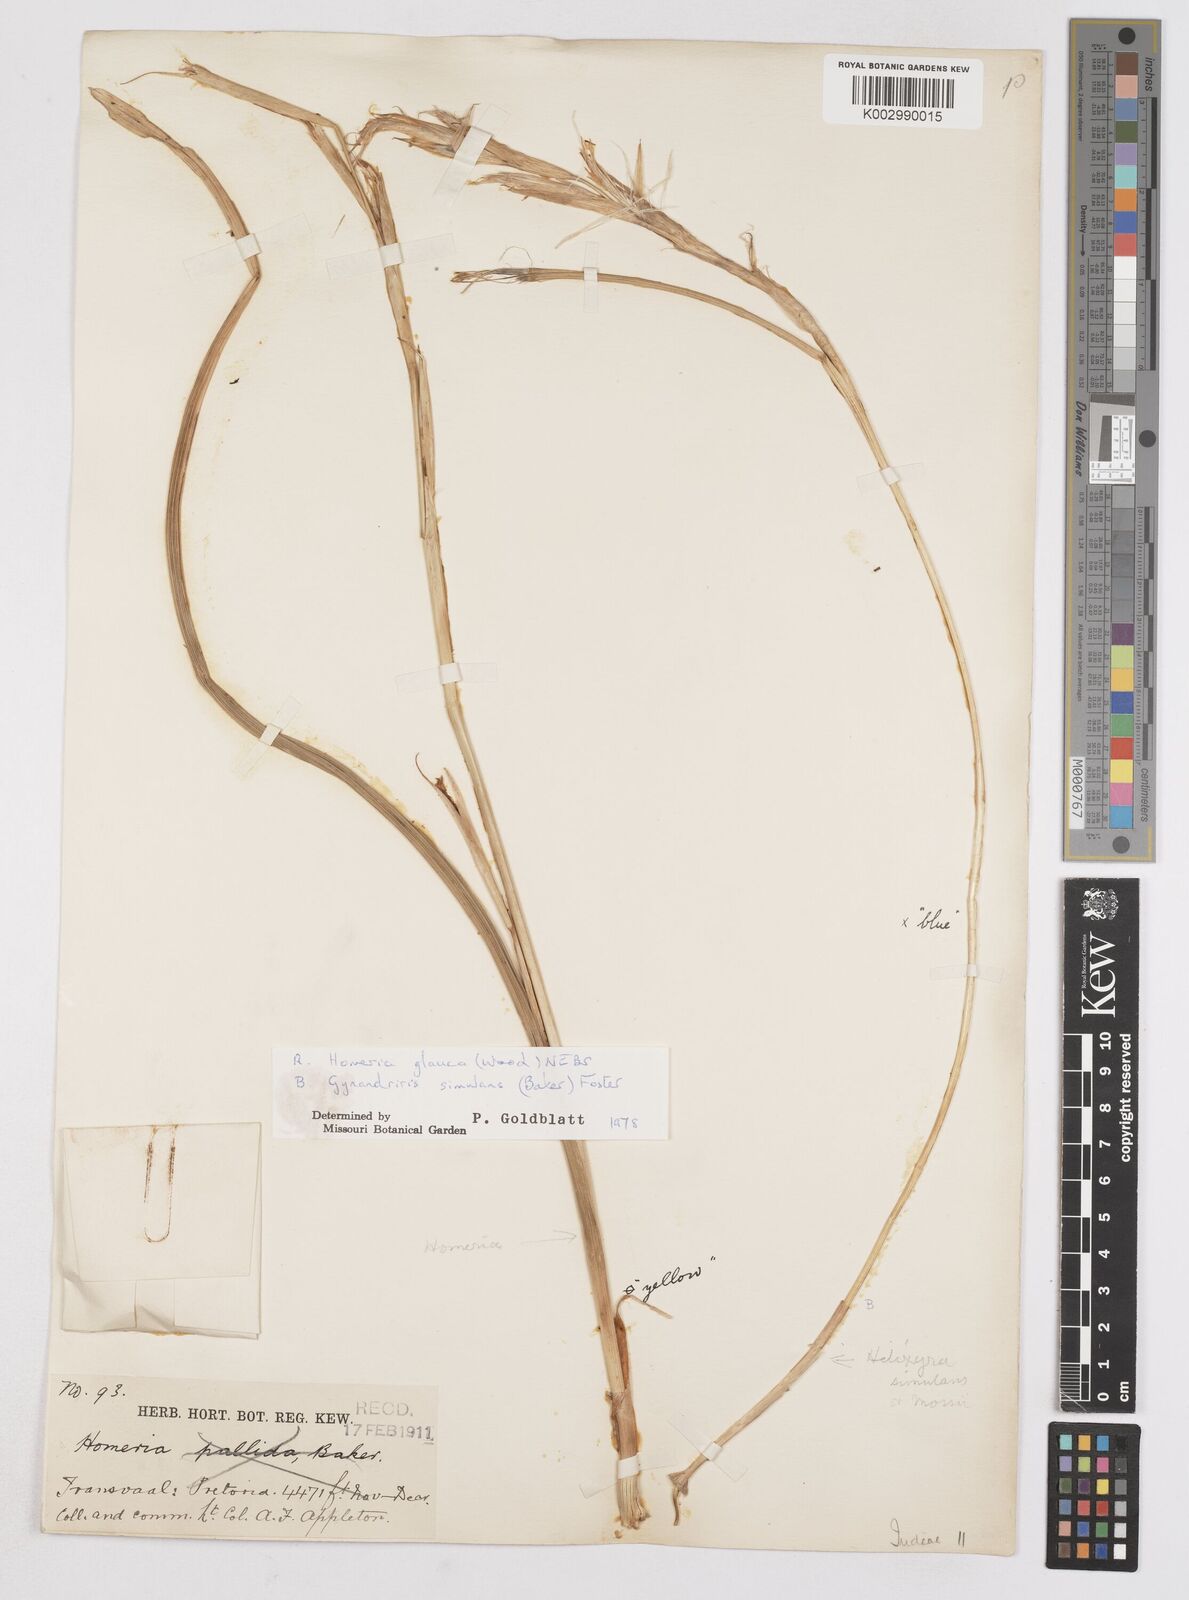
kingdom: Plantae
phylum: Tracheophyta
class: Liliopsida
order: Asparagales
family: Iridaceae
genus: Moraea
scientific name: Moraea pallida
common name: Yellow tulp
